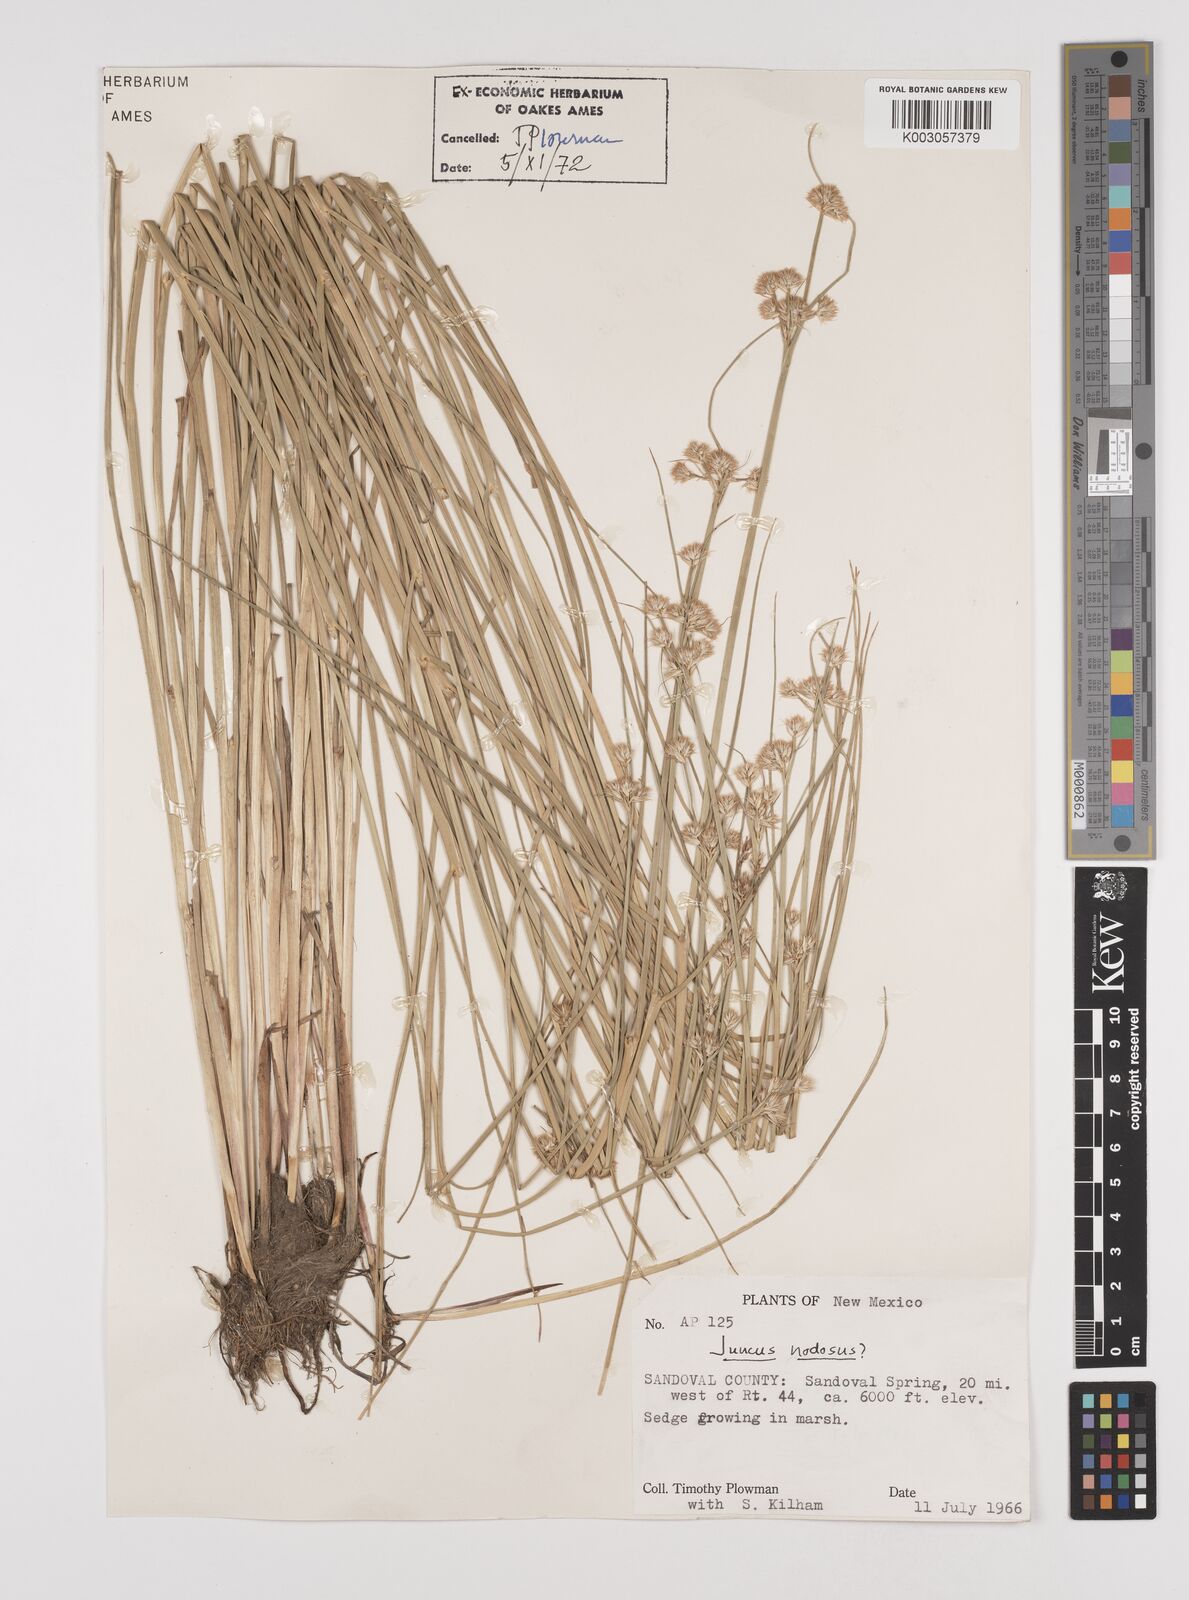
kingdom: Plantae
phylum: Tracheophyta
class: Liliopsida
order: Poales
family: Juncaceae
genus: Juncus
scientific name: Juncus nodosus
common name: Knotted rush
